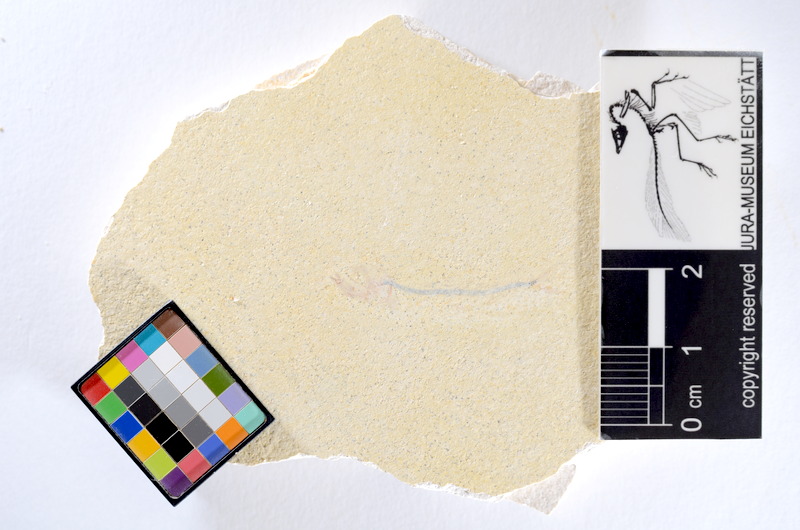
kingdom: Animalia
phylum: Chordata
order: Salmoniformes
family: Orthogonikleithridae
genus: Orthogonikleithrus
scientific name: Orthogonikleithrus hoelli
